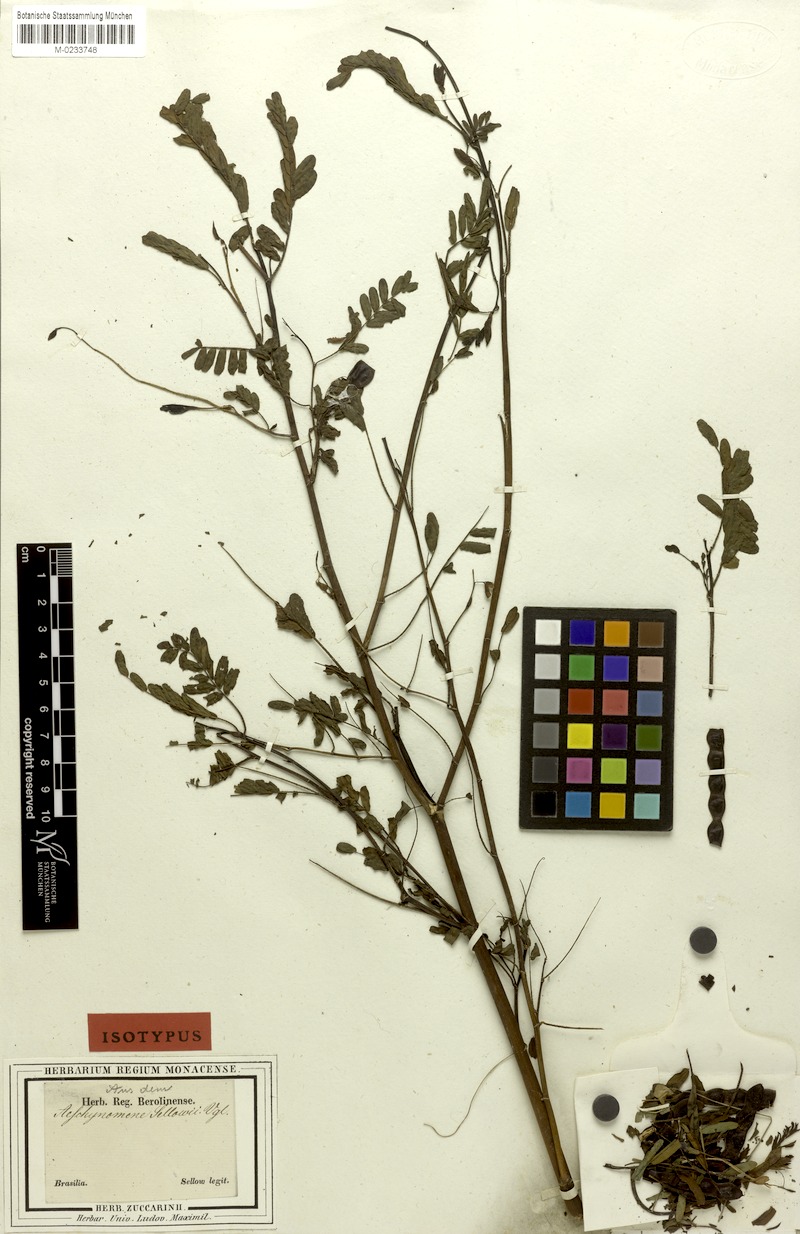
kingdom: Plantae
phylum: Tracheophyta
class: Magnoliopsida
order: Fabales
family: Fabaceae
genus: Aeschynomene
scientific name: Aeschynomene selloi
